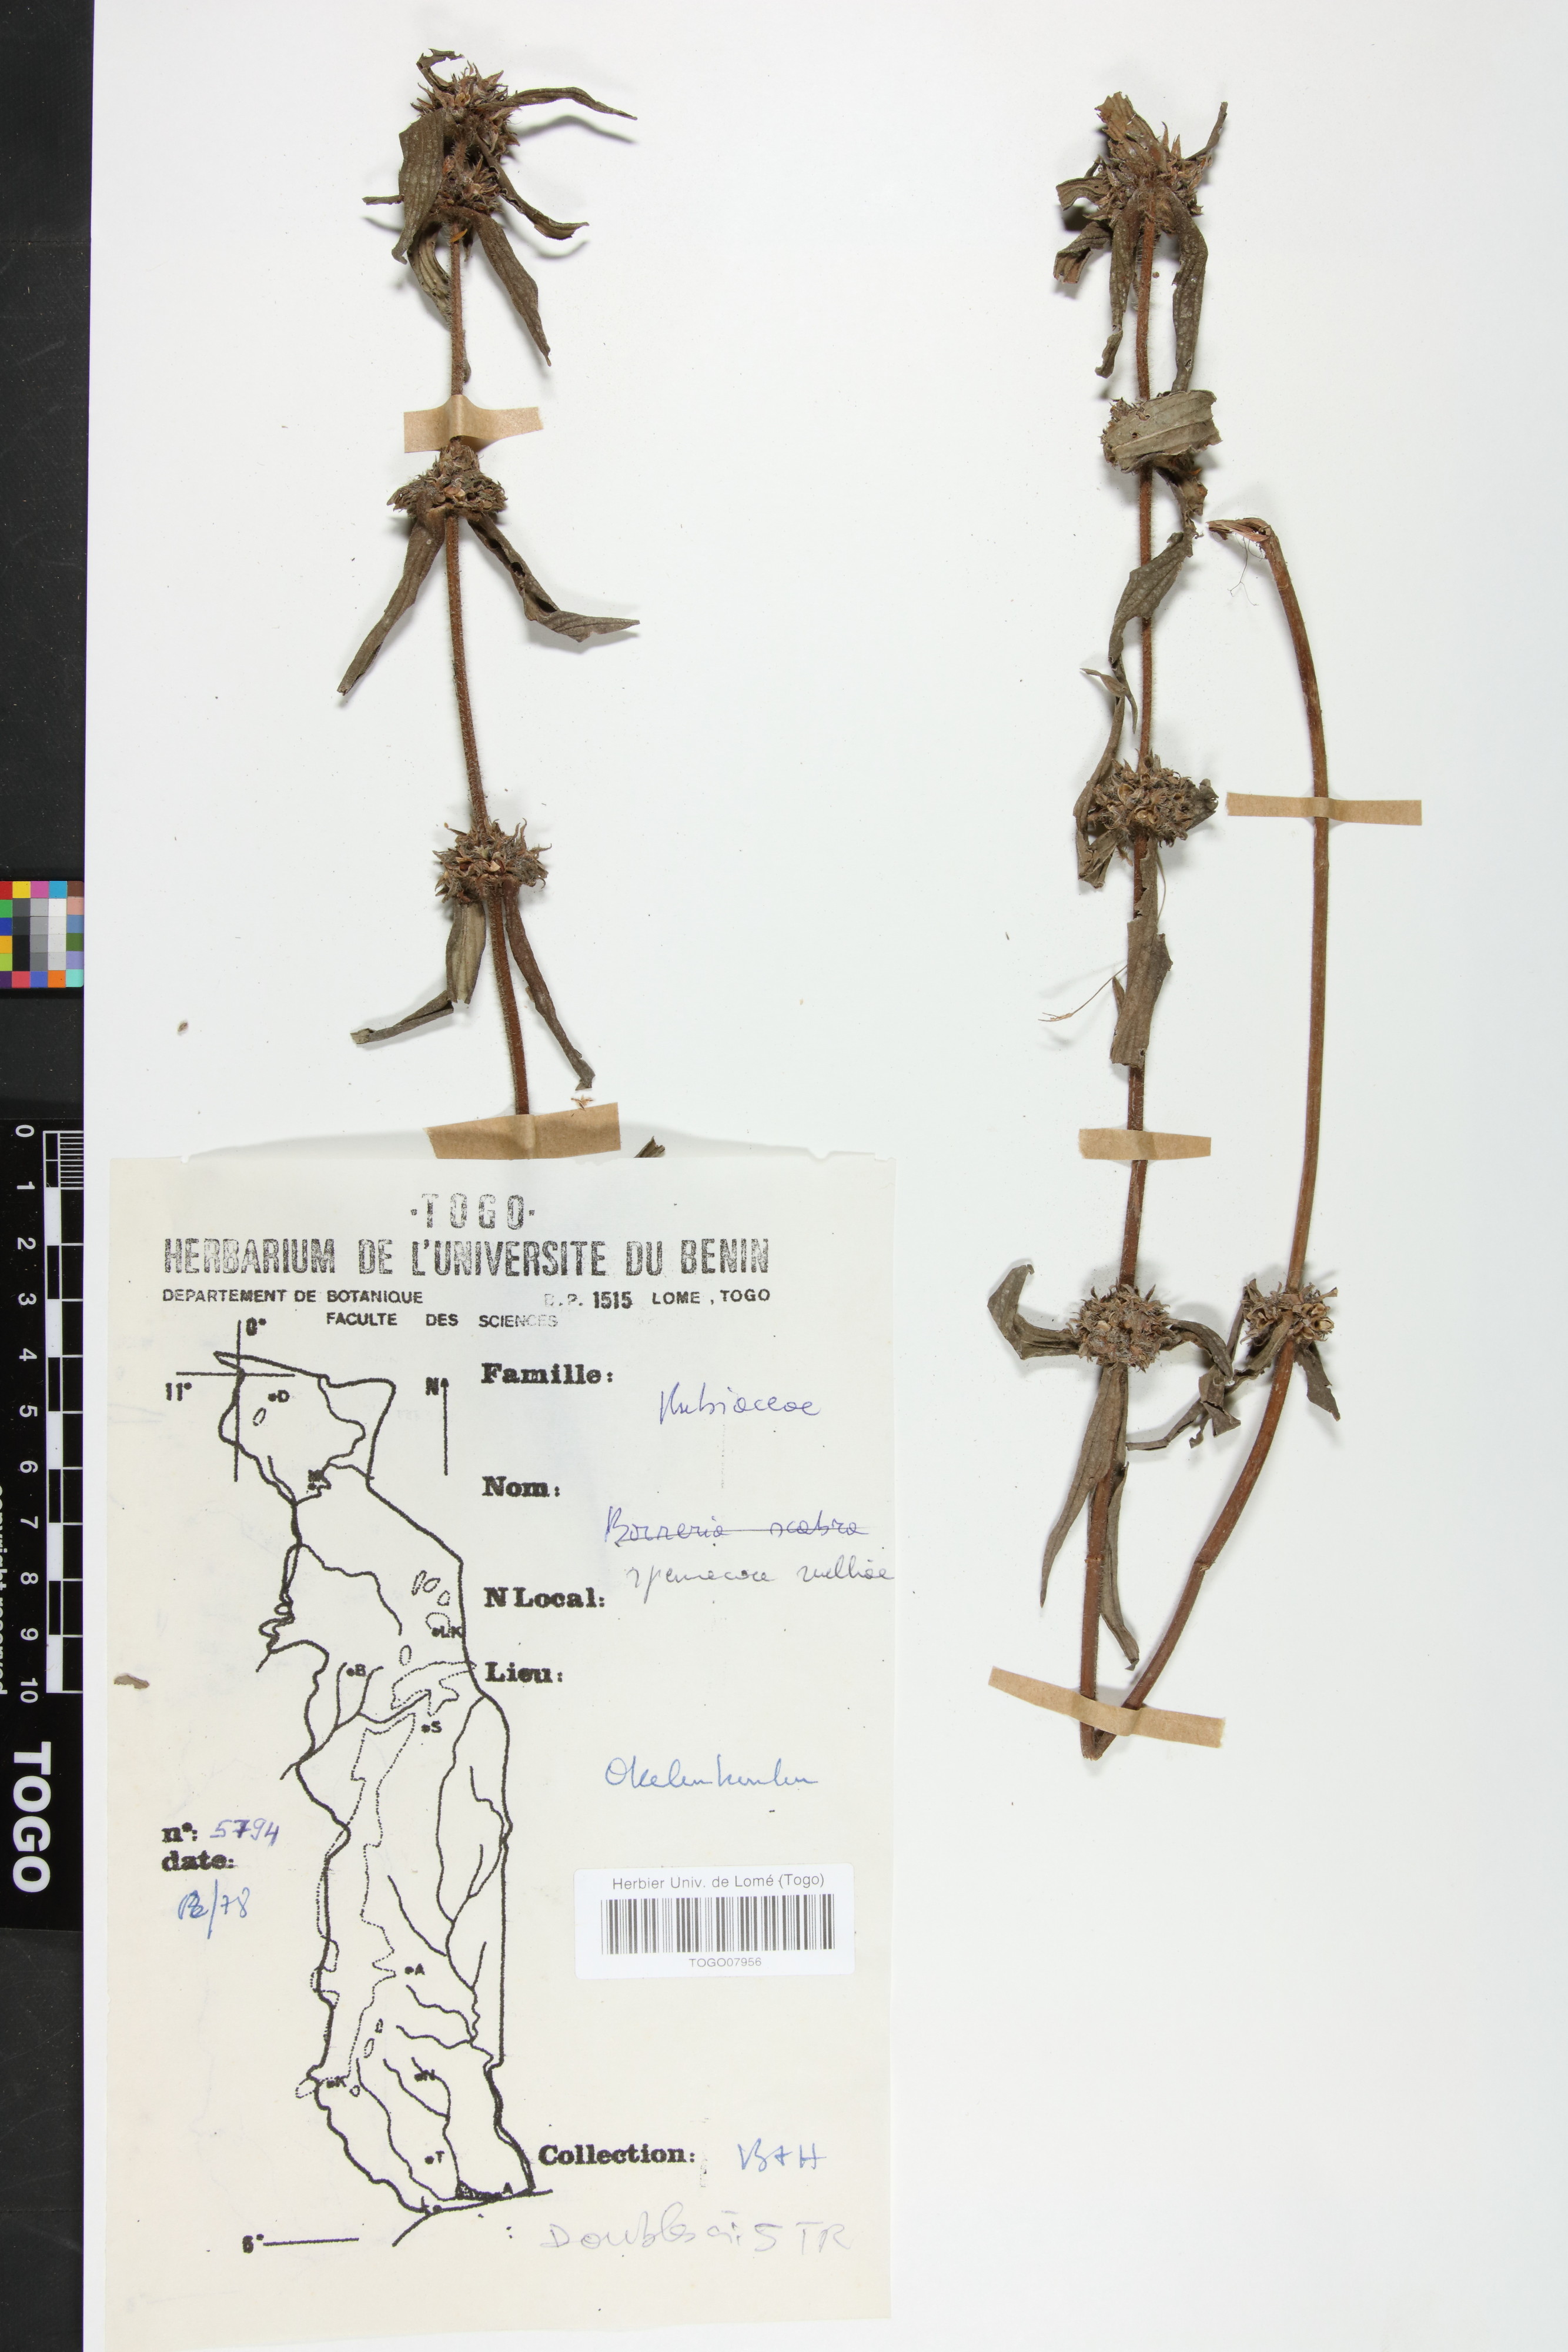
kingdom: Plantae
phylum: Tracheophyta
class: Magnoliopsida
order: Gentianales
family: Rubiaceae
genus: Spermacoce
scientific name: Spermacoce ruelliae
